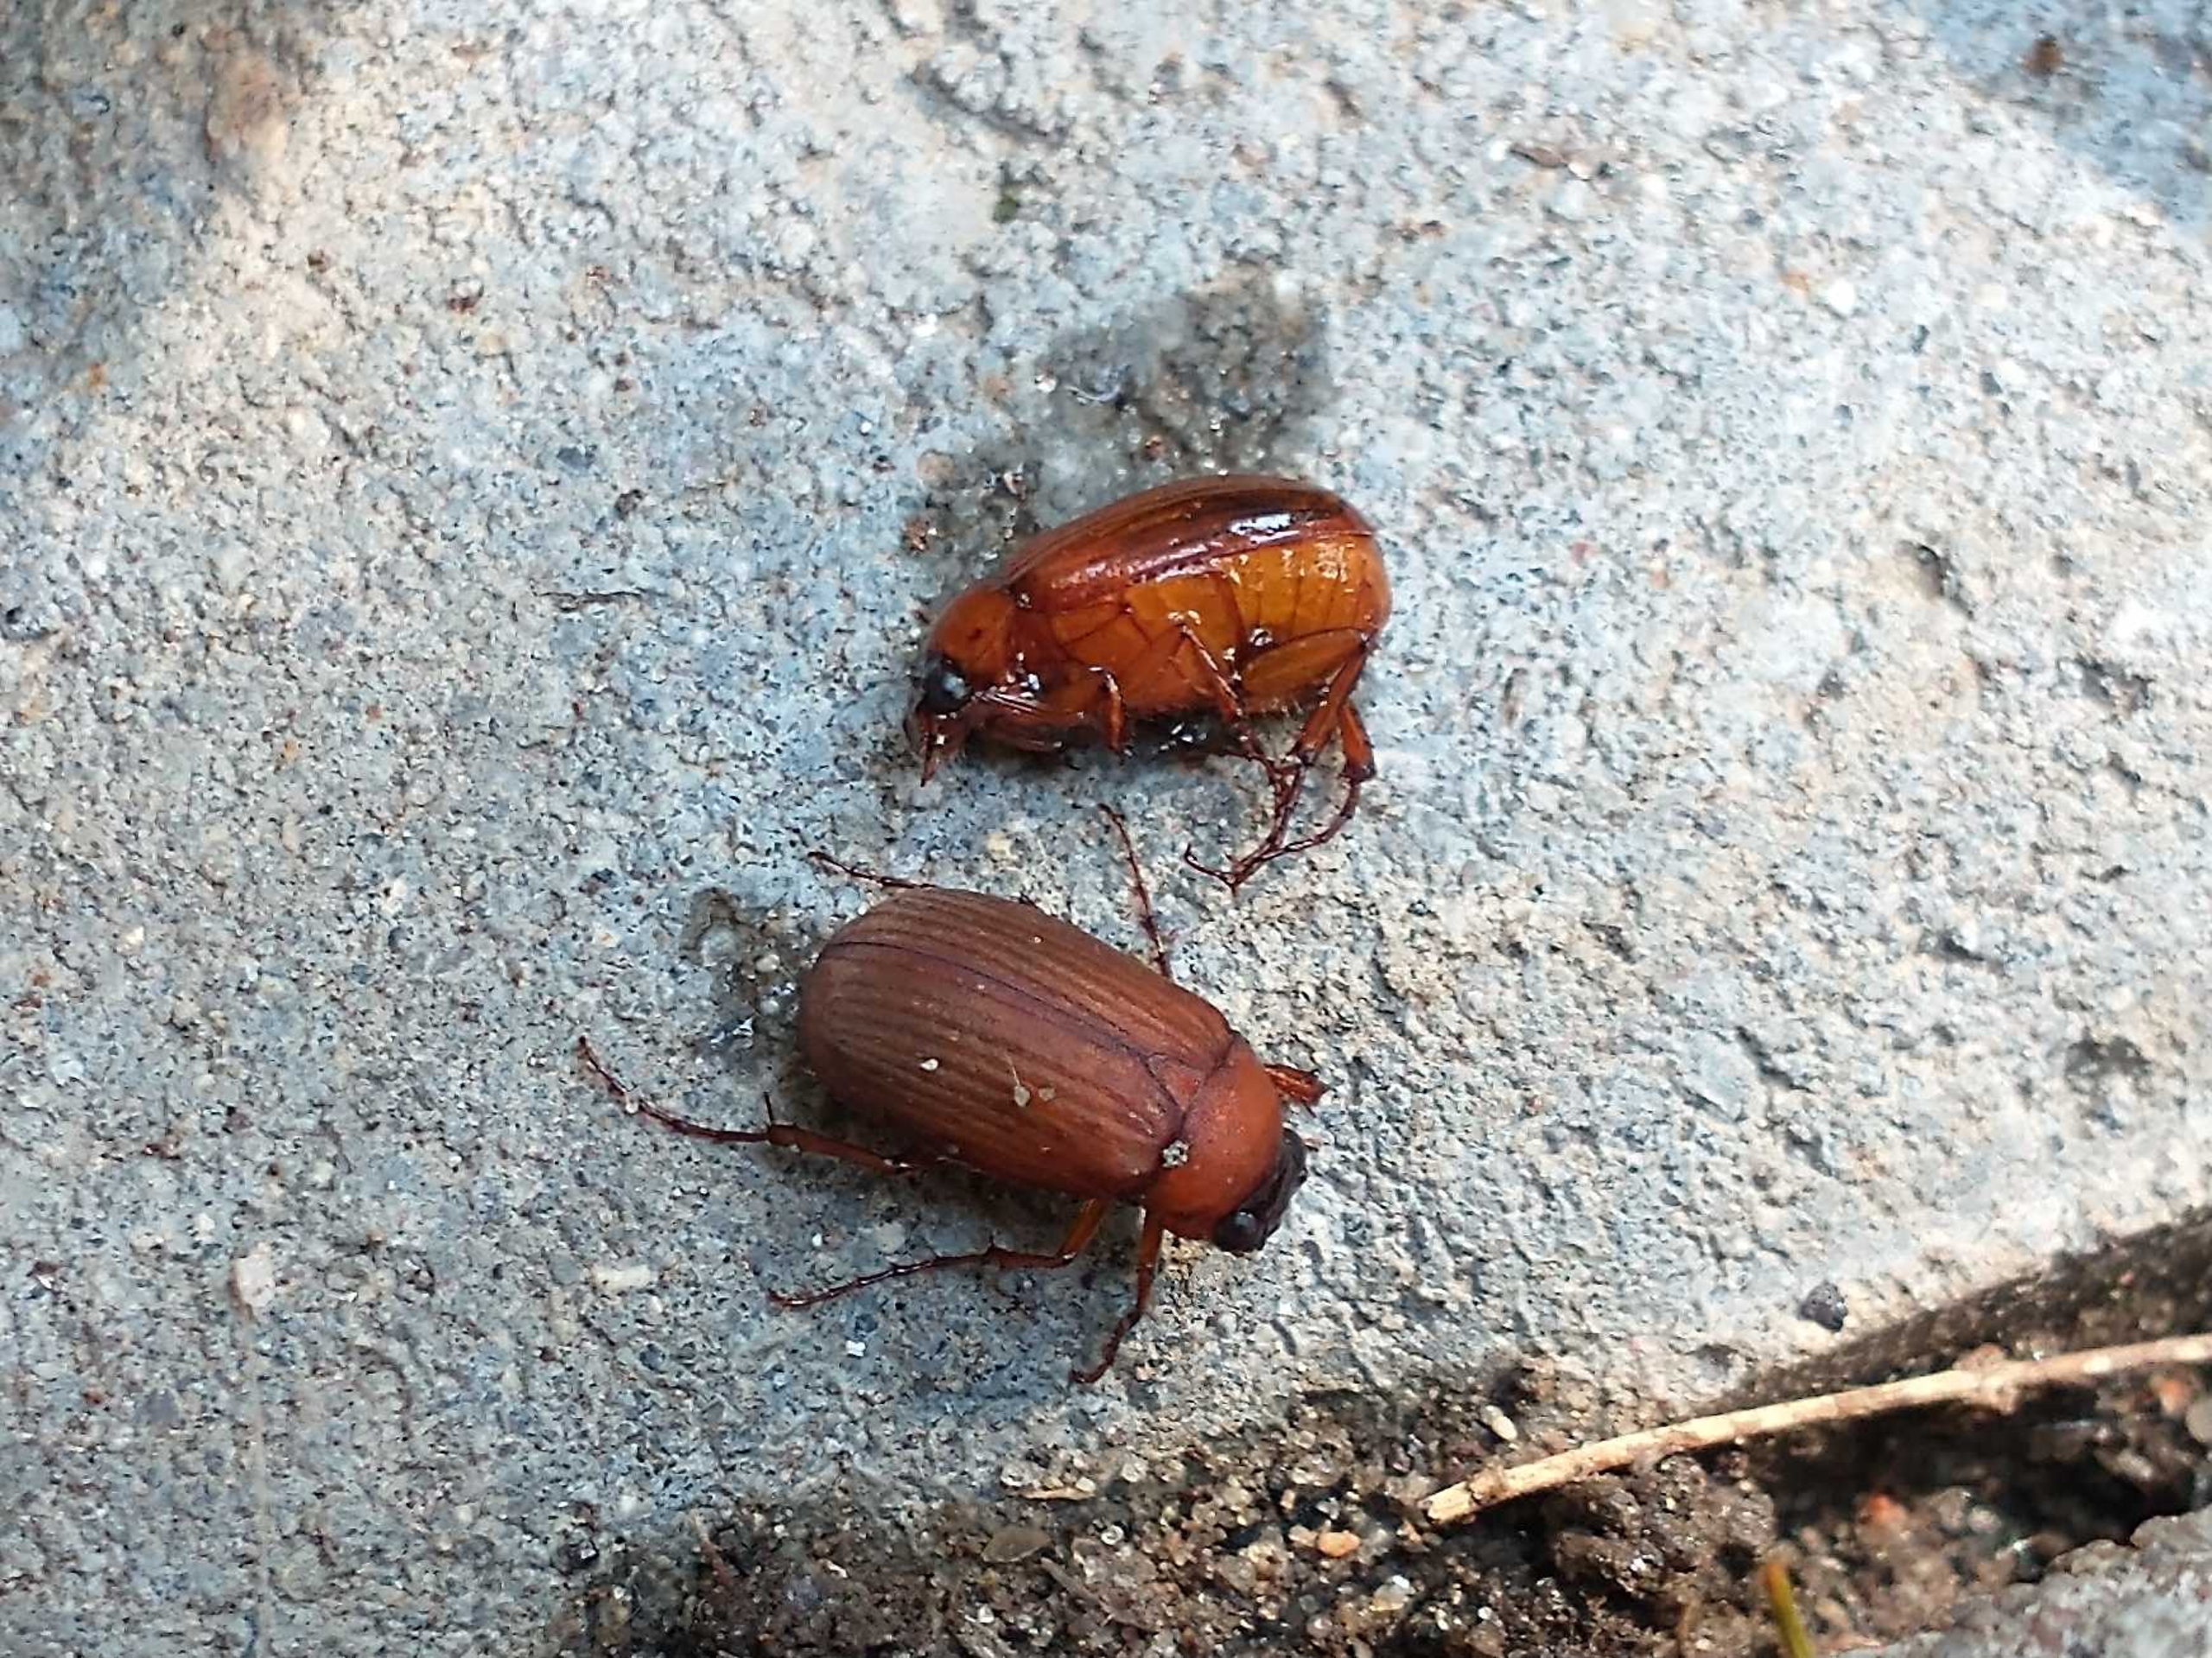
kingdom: Animalia
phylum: Arthropoda
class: Insecta
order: Coleoptera
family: Scarabaeidae
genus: Serica
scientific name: Serica brunnea
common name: Natoldenborre
